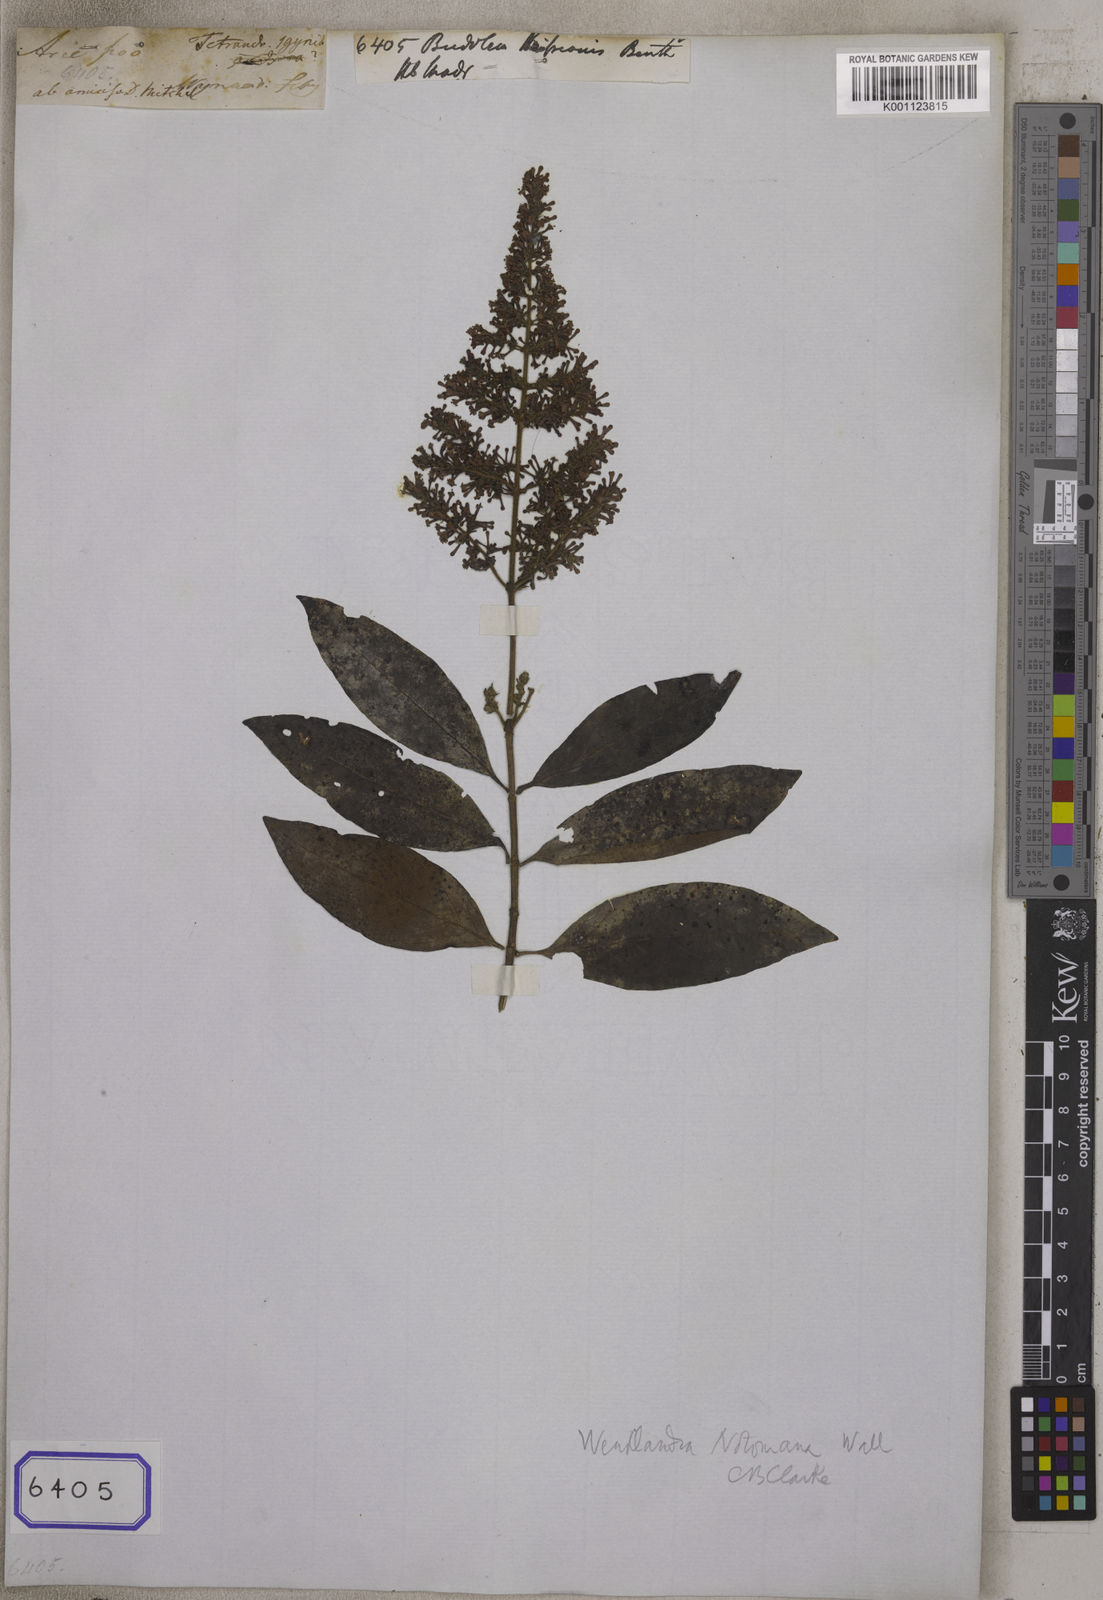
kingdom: Plantae
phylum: Tracheophyta
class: Magnoliopsida
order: Gentianales
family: Rubiaceae
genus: Wendlandia
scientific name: Wendlandia thyrsoidea
